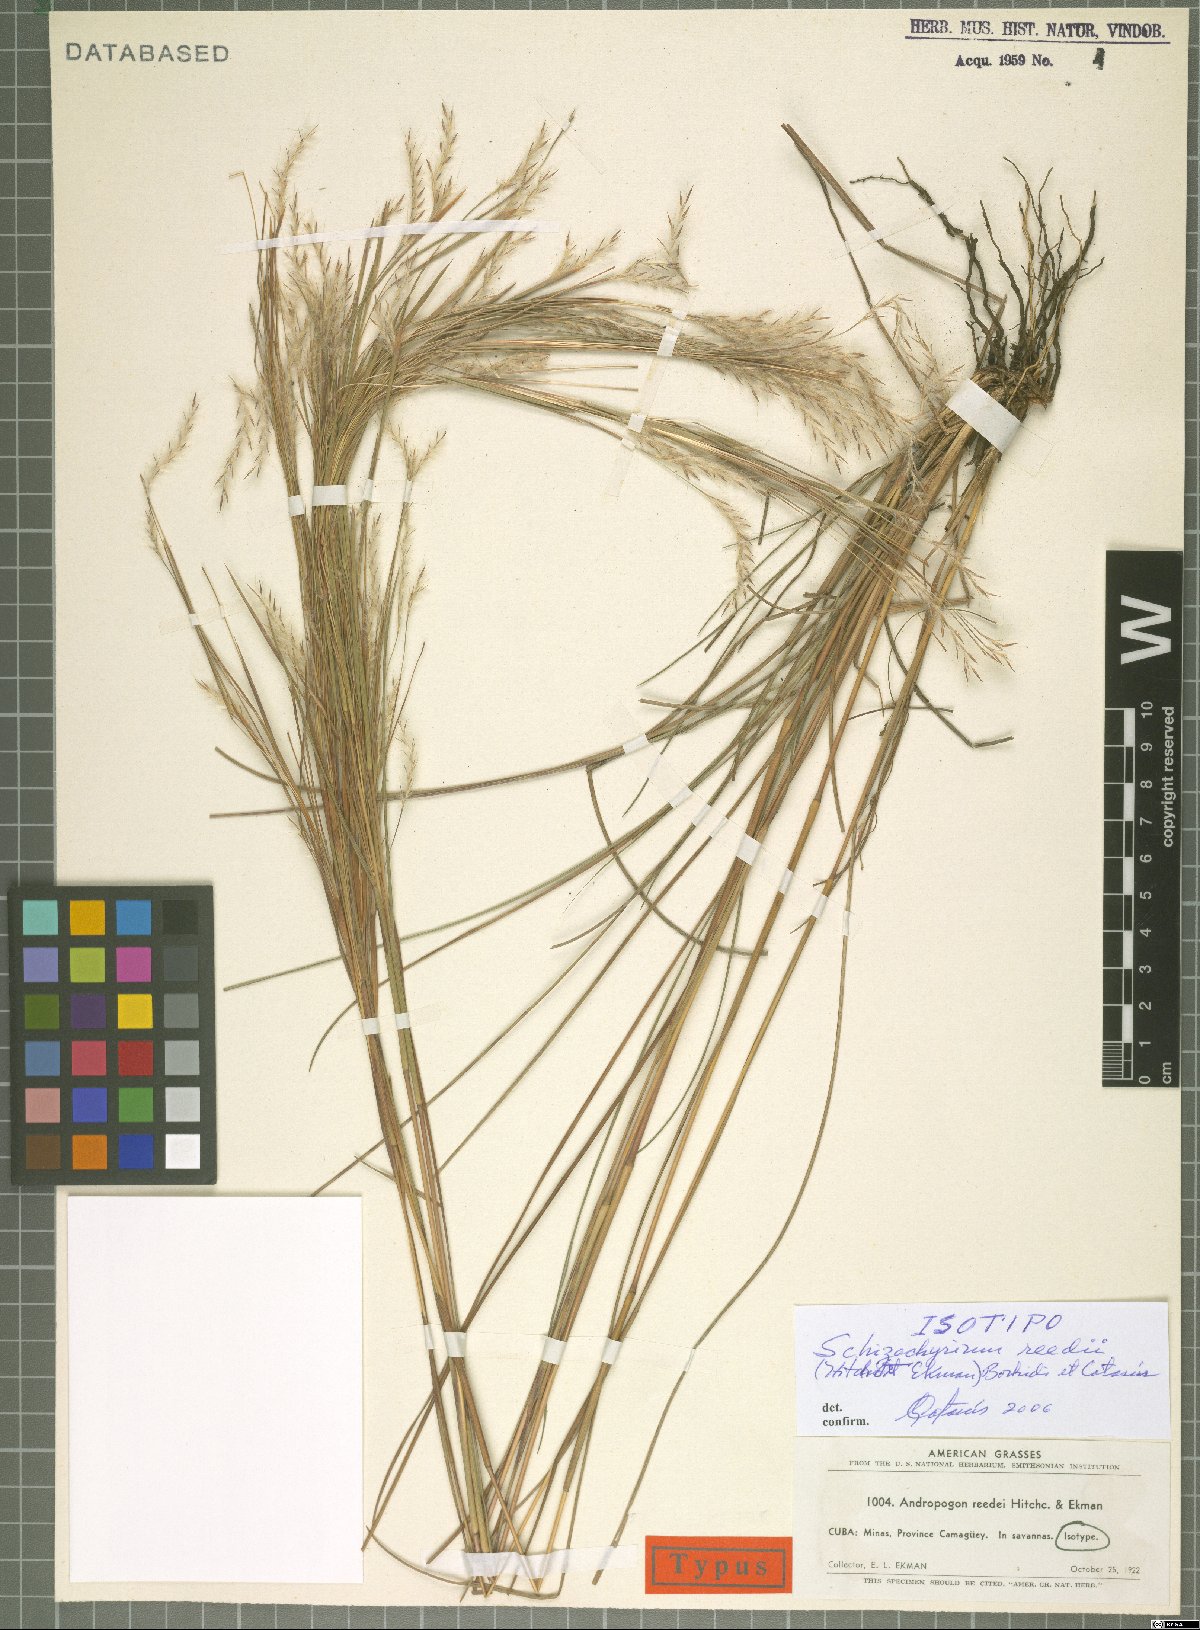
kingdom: Plantae
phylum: Tracheophyta
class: Liliopsida
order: Poales
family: Poaceae
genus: Schizachyrium
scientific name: Schizachyrium reedii
